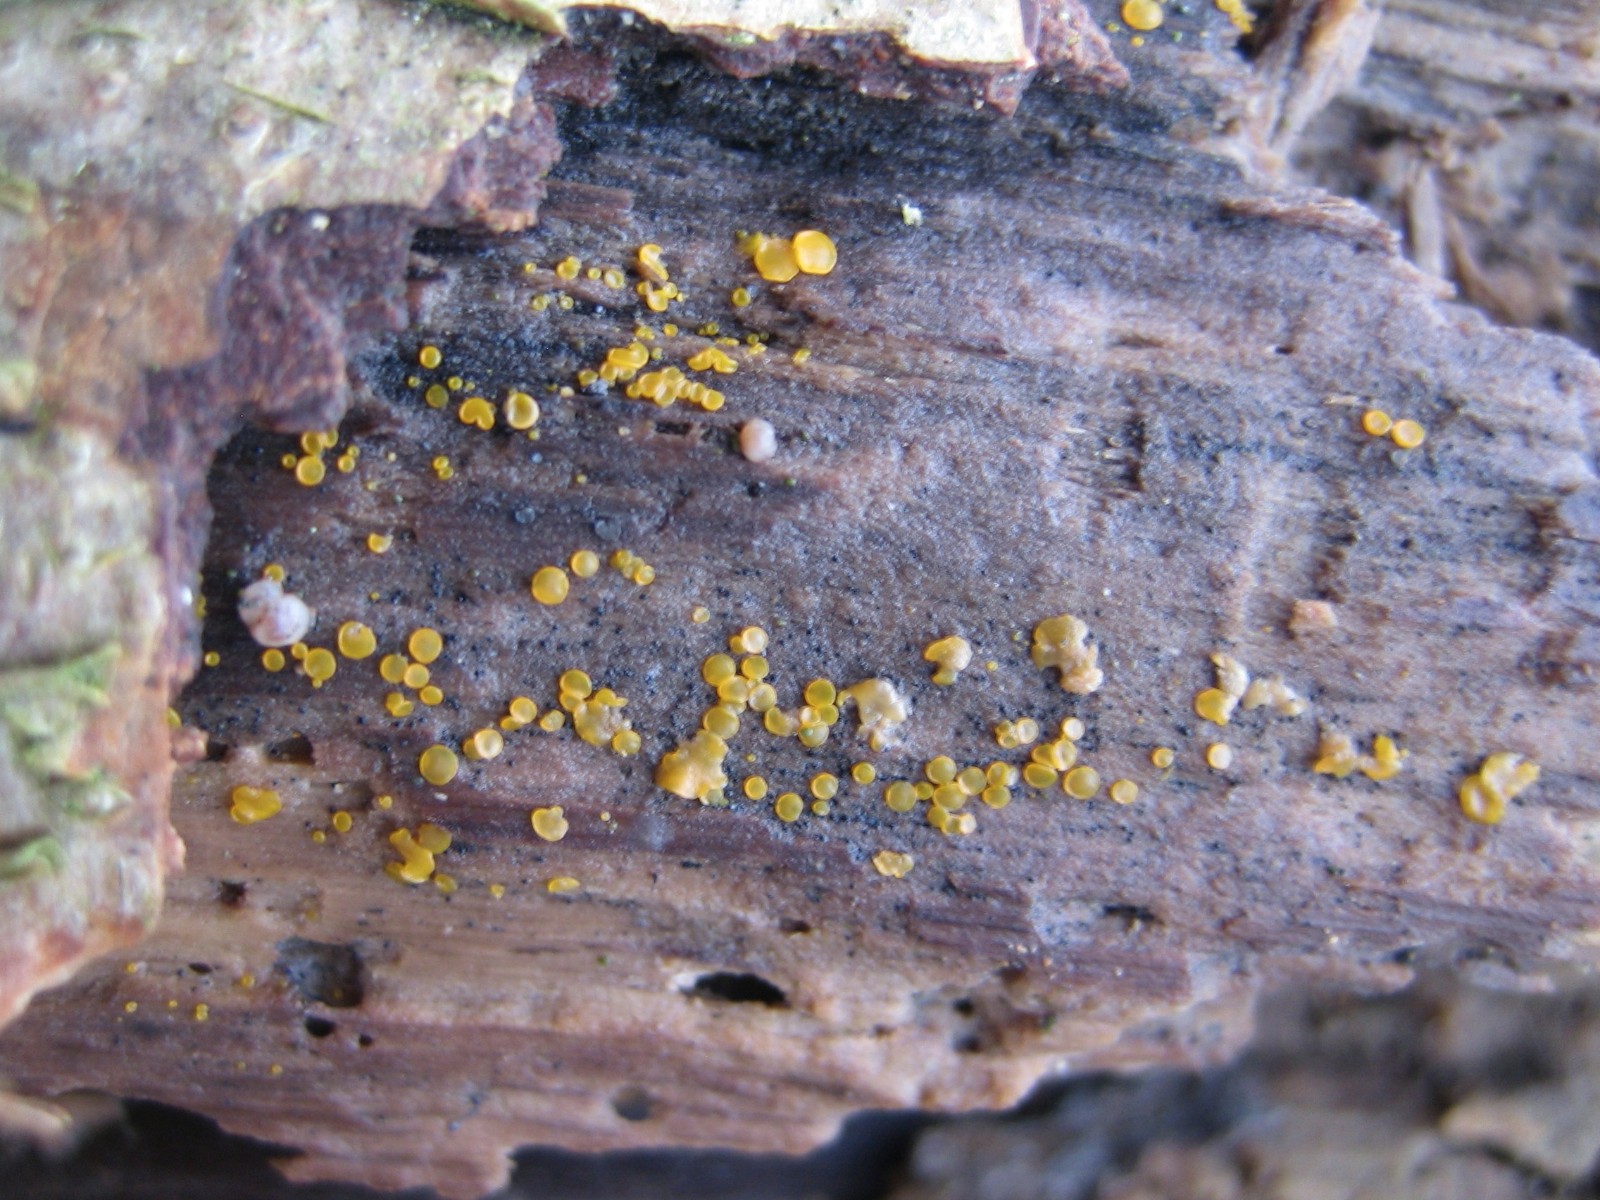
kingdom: Fungi
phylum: Ascomycota
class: Orbiliomycetes
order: Orbiliales
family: Orbiliaceae
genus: Orbilia
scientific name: Orbilia xanthostigma
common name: krumsporet voksskive
